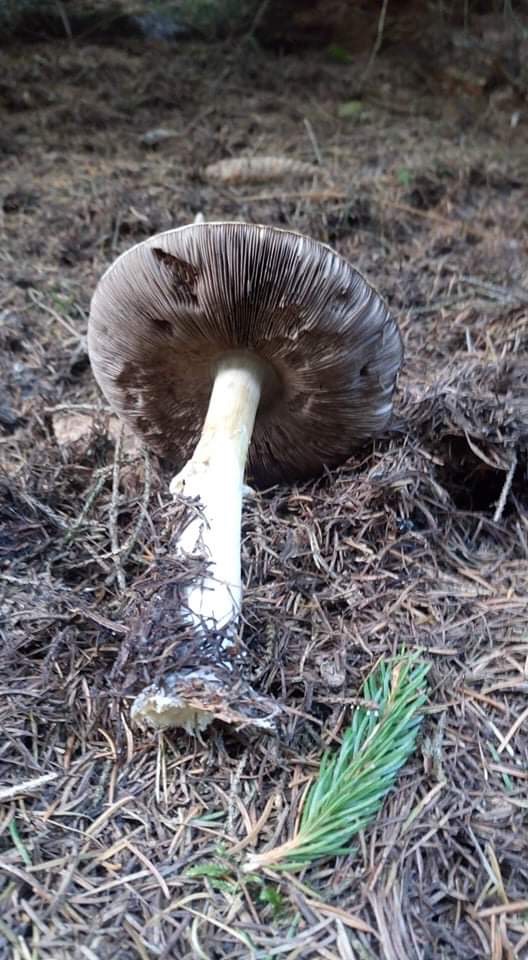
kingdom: Fungi
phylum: Basidiomycota
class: Agaricomycetes
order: Agaricales
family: Agaricaceae
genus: Agaricus
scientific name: Agaricus
